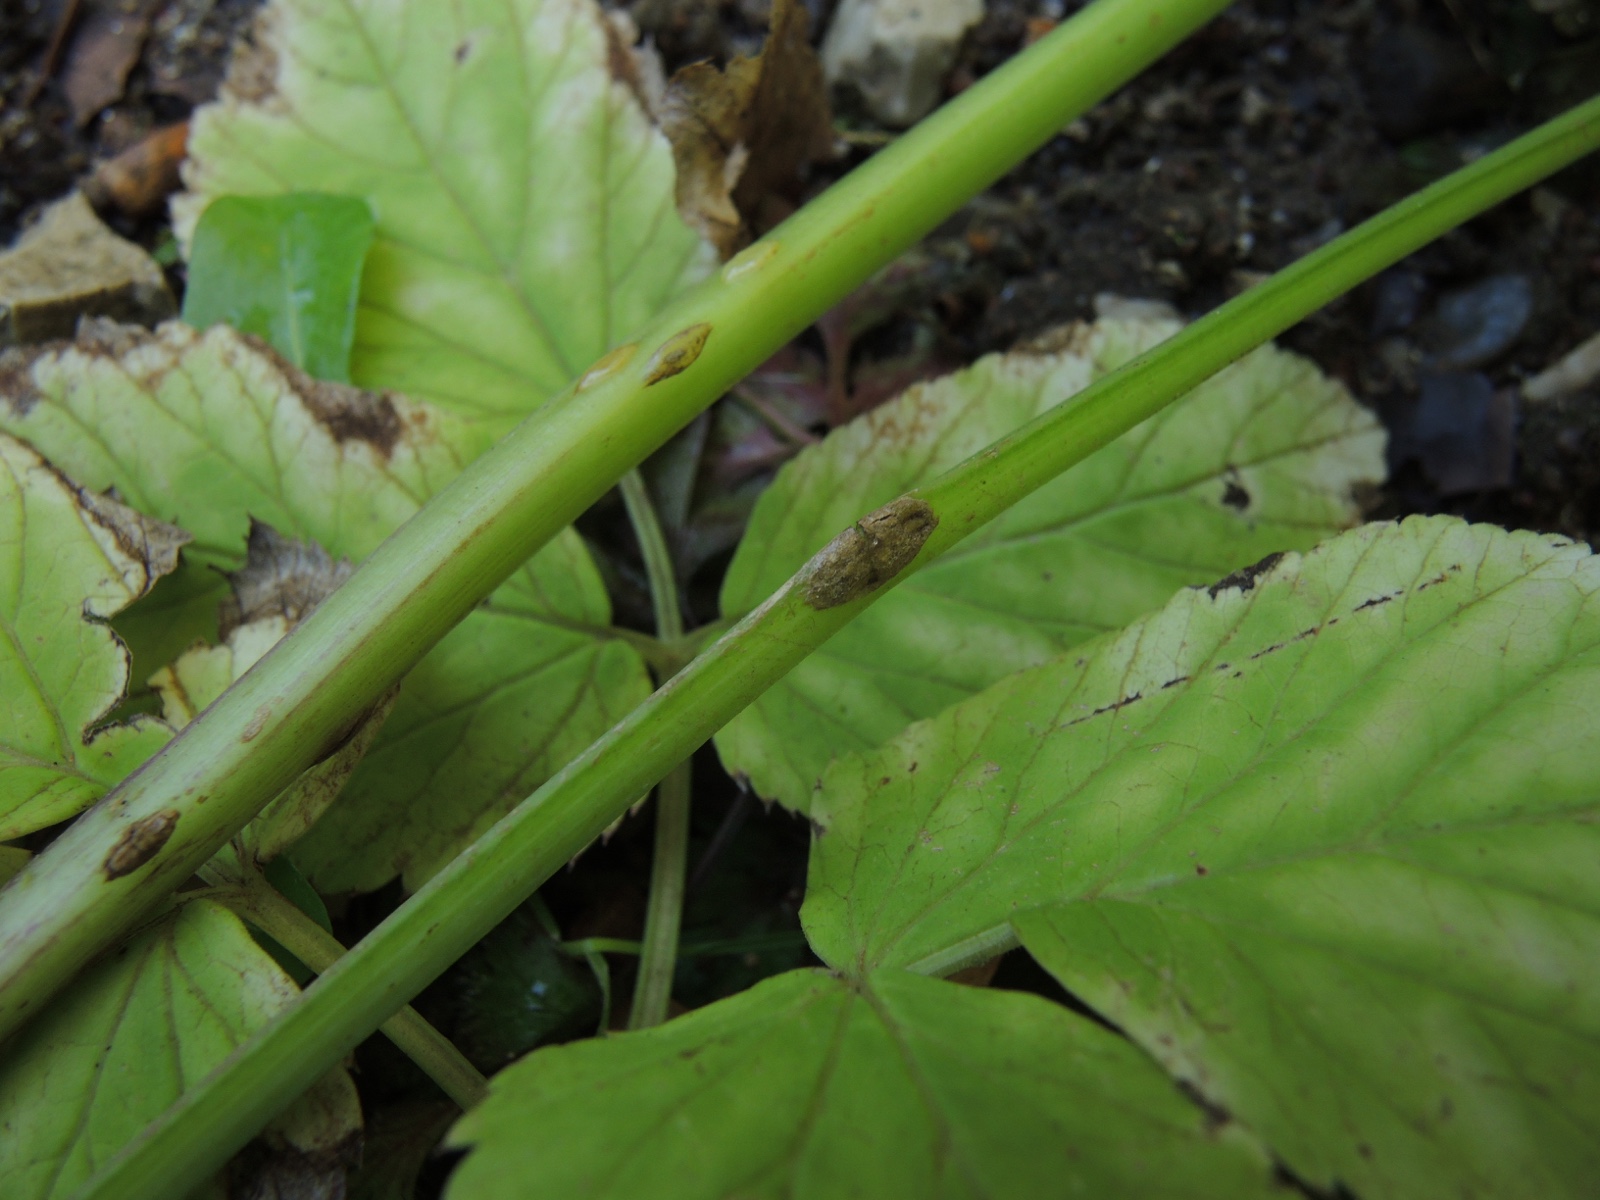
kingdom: Fungi
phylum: Ascomycota
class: Taphrinomycetes
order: Taphrinales
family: Taphrinaceae
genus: Protomyces
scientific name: Protomyces macrosporus
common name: skvalderkål-vablesæk
